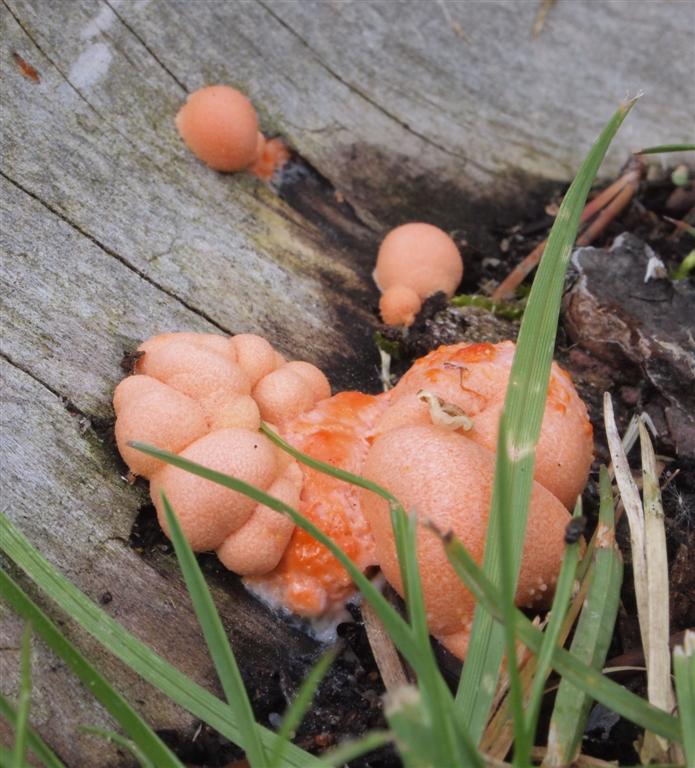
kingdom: Protozoa
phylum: Mycetozoa
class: Myxomycetes
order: Cribrariales
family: Tubiferaceae
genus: Lycogala
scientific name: Lycogala epidendrum
